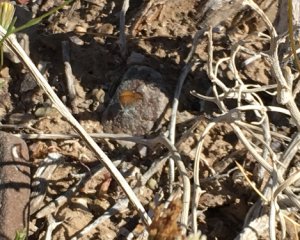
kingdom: Animalia
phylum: Arthropoda
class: Insecta
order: Lepidoptera
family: Lycaenidae
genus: Brephidium
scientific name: Brephidium exilis
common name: Western Pygmy-Blue
